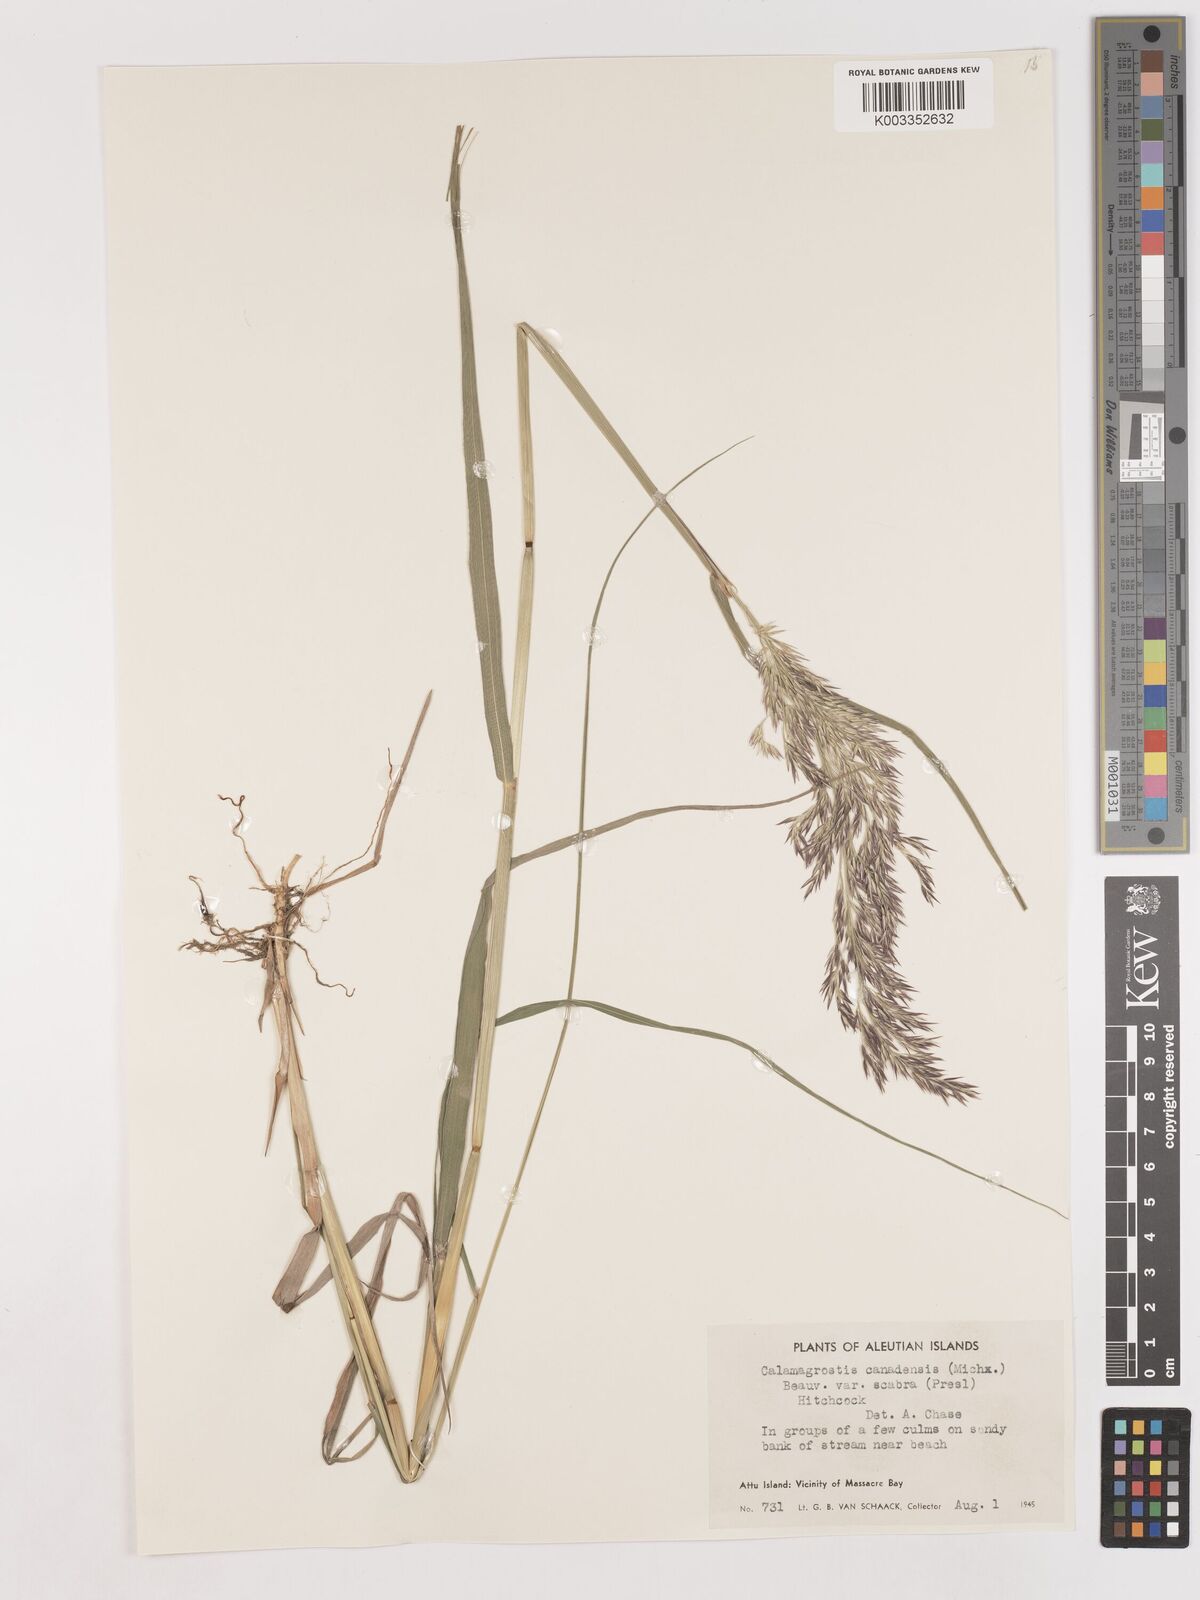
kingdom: Plantae
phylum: Tracheophyta
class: Liliopsida
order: Poales
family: Poaceae
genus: Calamagrostis
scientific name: Calamagrostis canadensis
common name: Canada bluejoint
